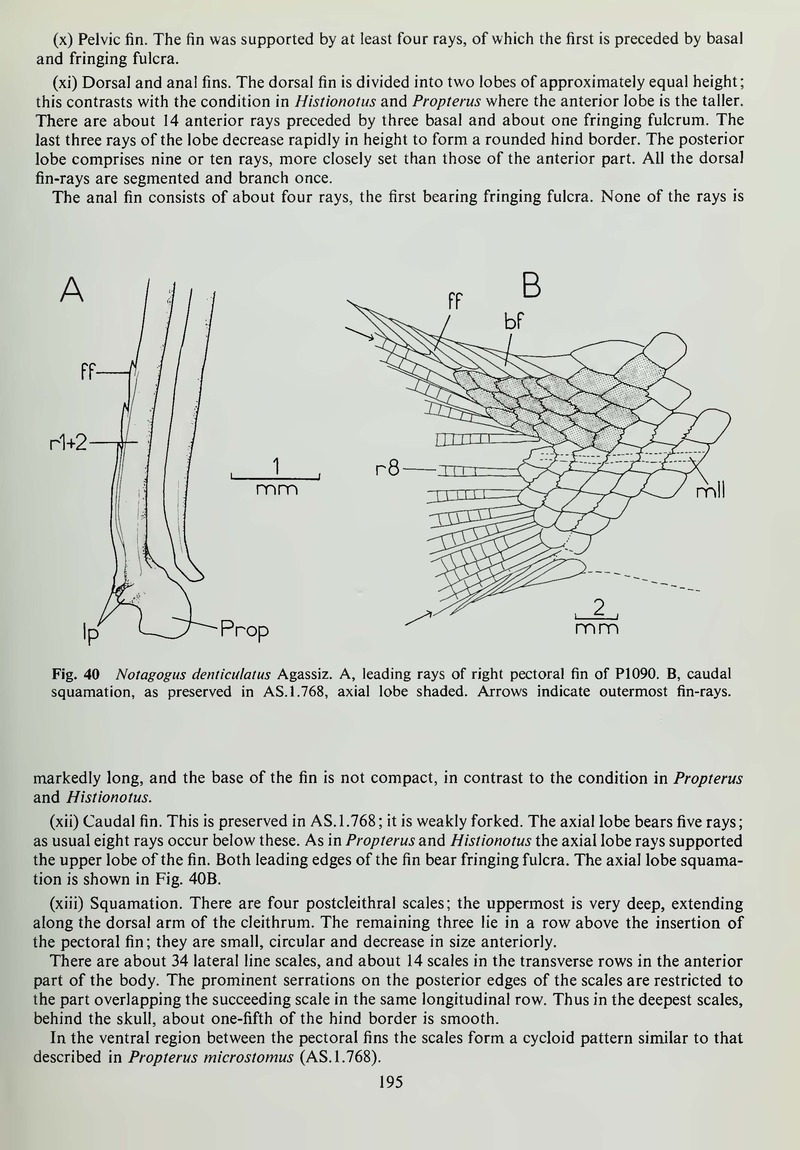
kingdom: Animalia
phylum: Chordata
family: Macrosemiidae
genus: Notagogus
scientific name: Notagogus denticulatus
